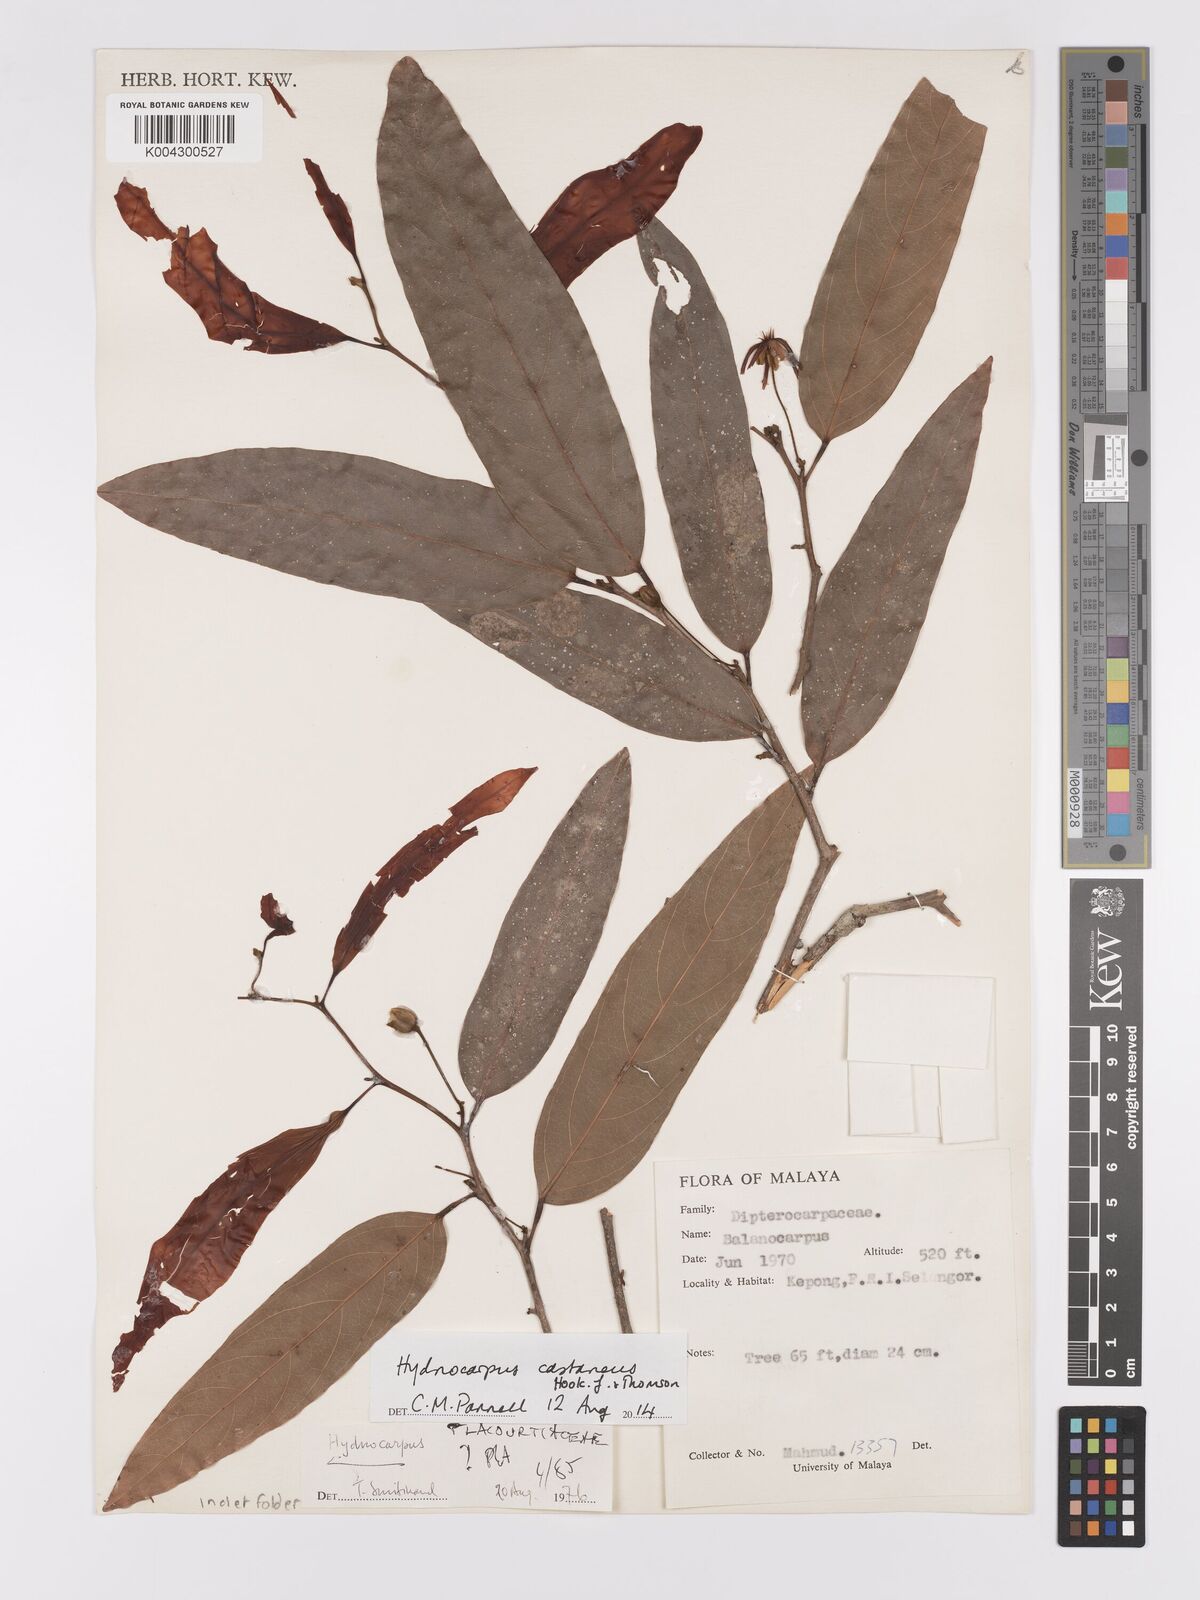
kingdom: Plantae
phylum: Tracheophyta
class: Magnoliopsida
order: Malpighiales
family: Achariaceae
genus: Hydnocarpus
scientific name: Hydnocarpus castaneus
